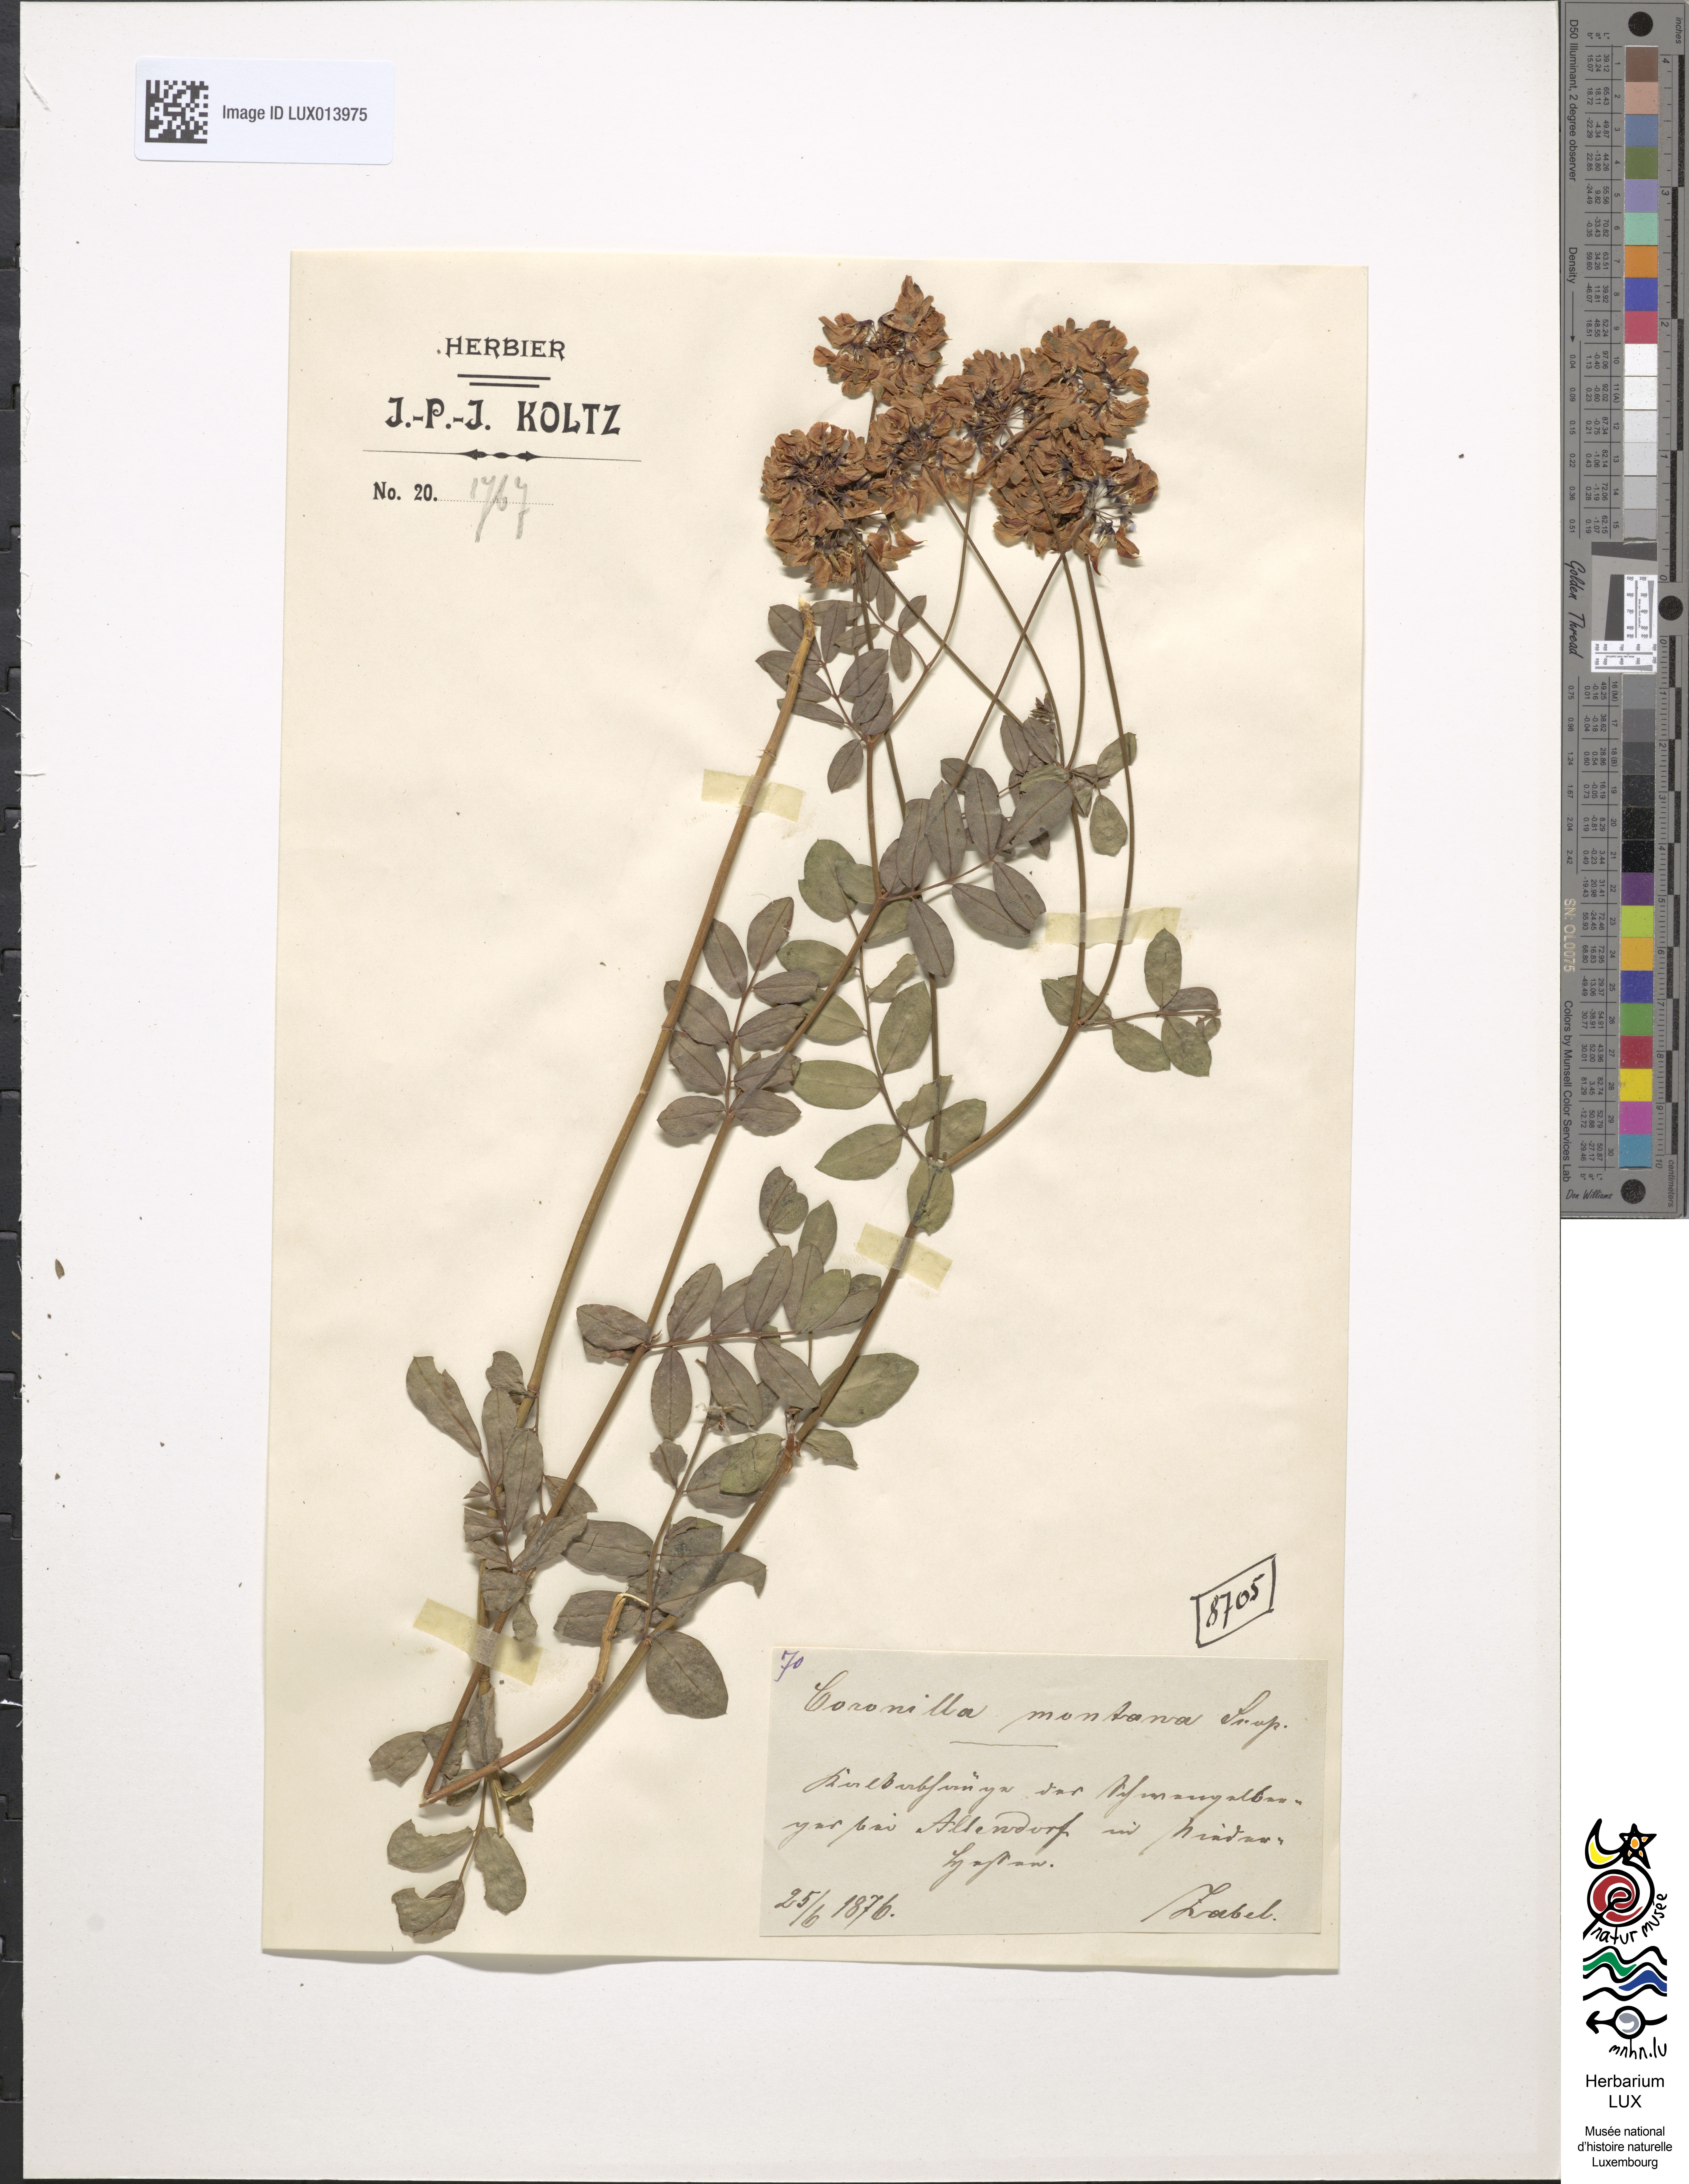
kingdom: Plantae
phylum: Tracheophyta
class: Magnoliopsida
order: Fabales
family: Fabaceae
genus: Coronilla
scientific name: Coronilla coronata
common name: Scorpion-vetch
